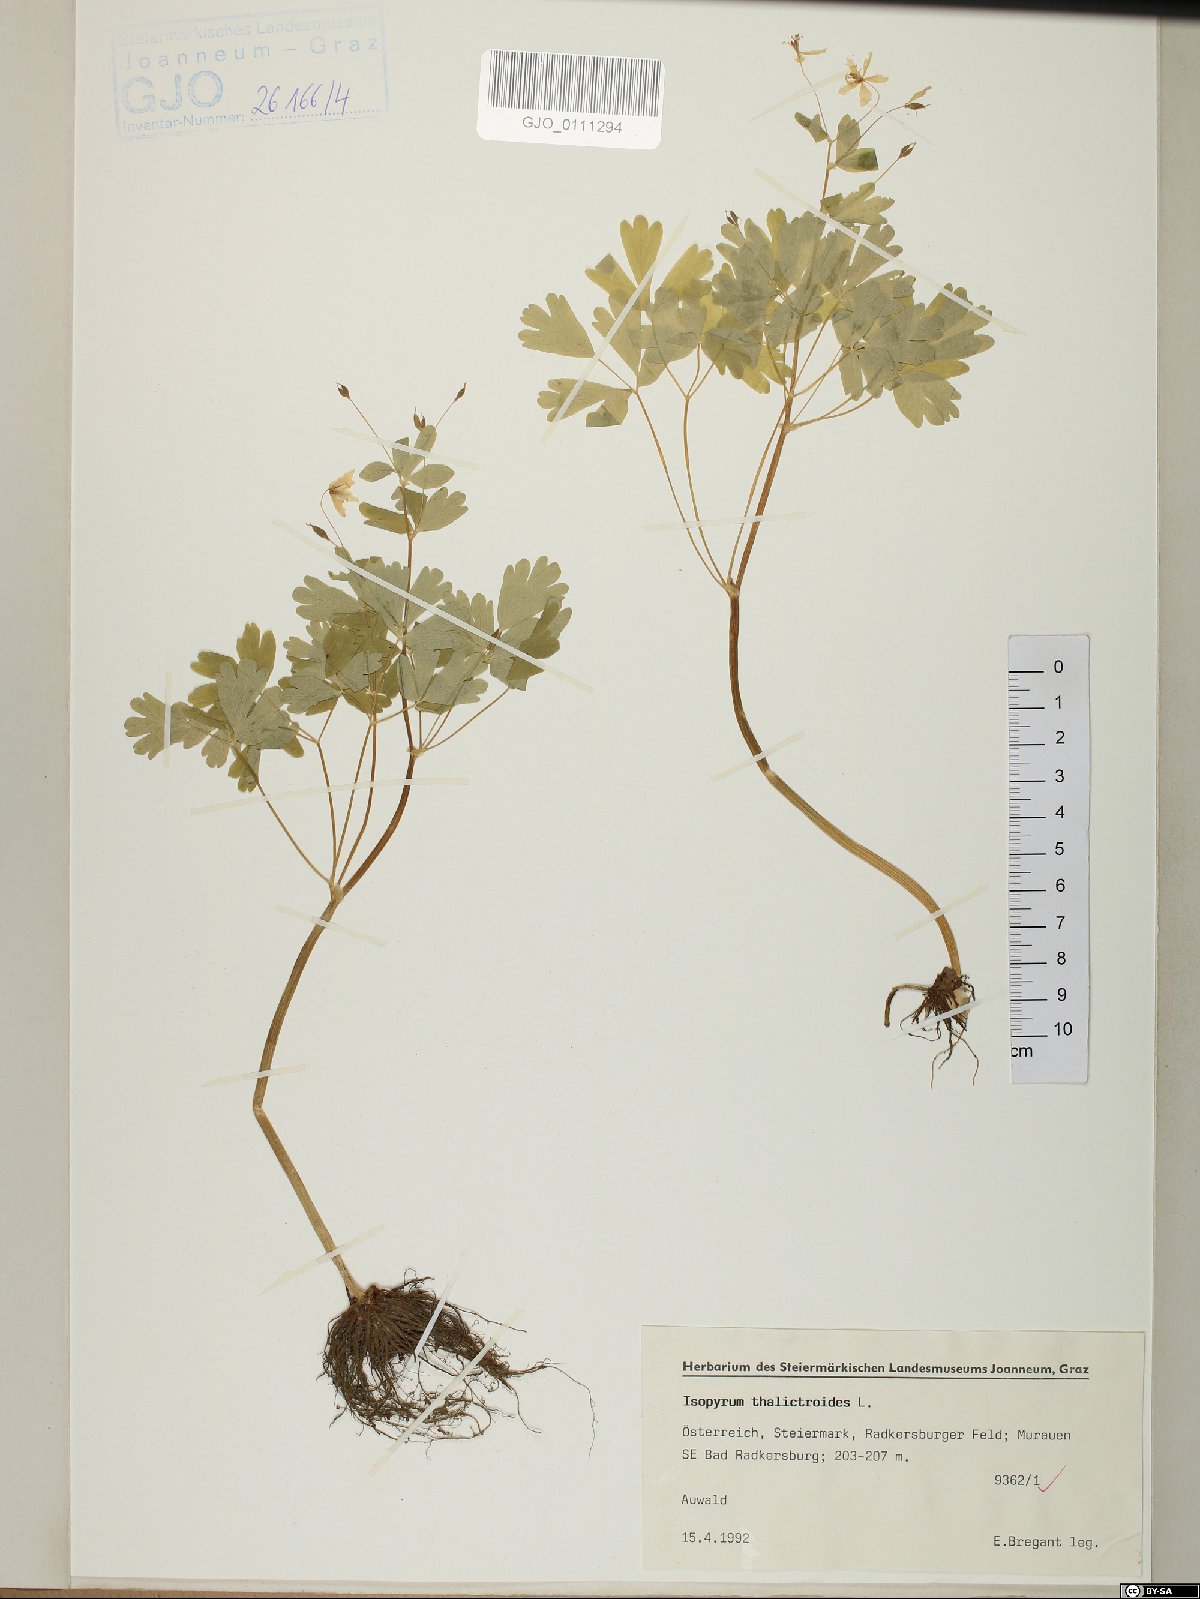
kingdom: Plantae
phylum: Tracheophyta
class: Magnoliopsida
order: Ranunculales
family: Ranunculaceae
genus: Isopyrum
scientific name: Isopyrum thalictroides
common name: Isopyrum
